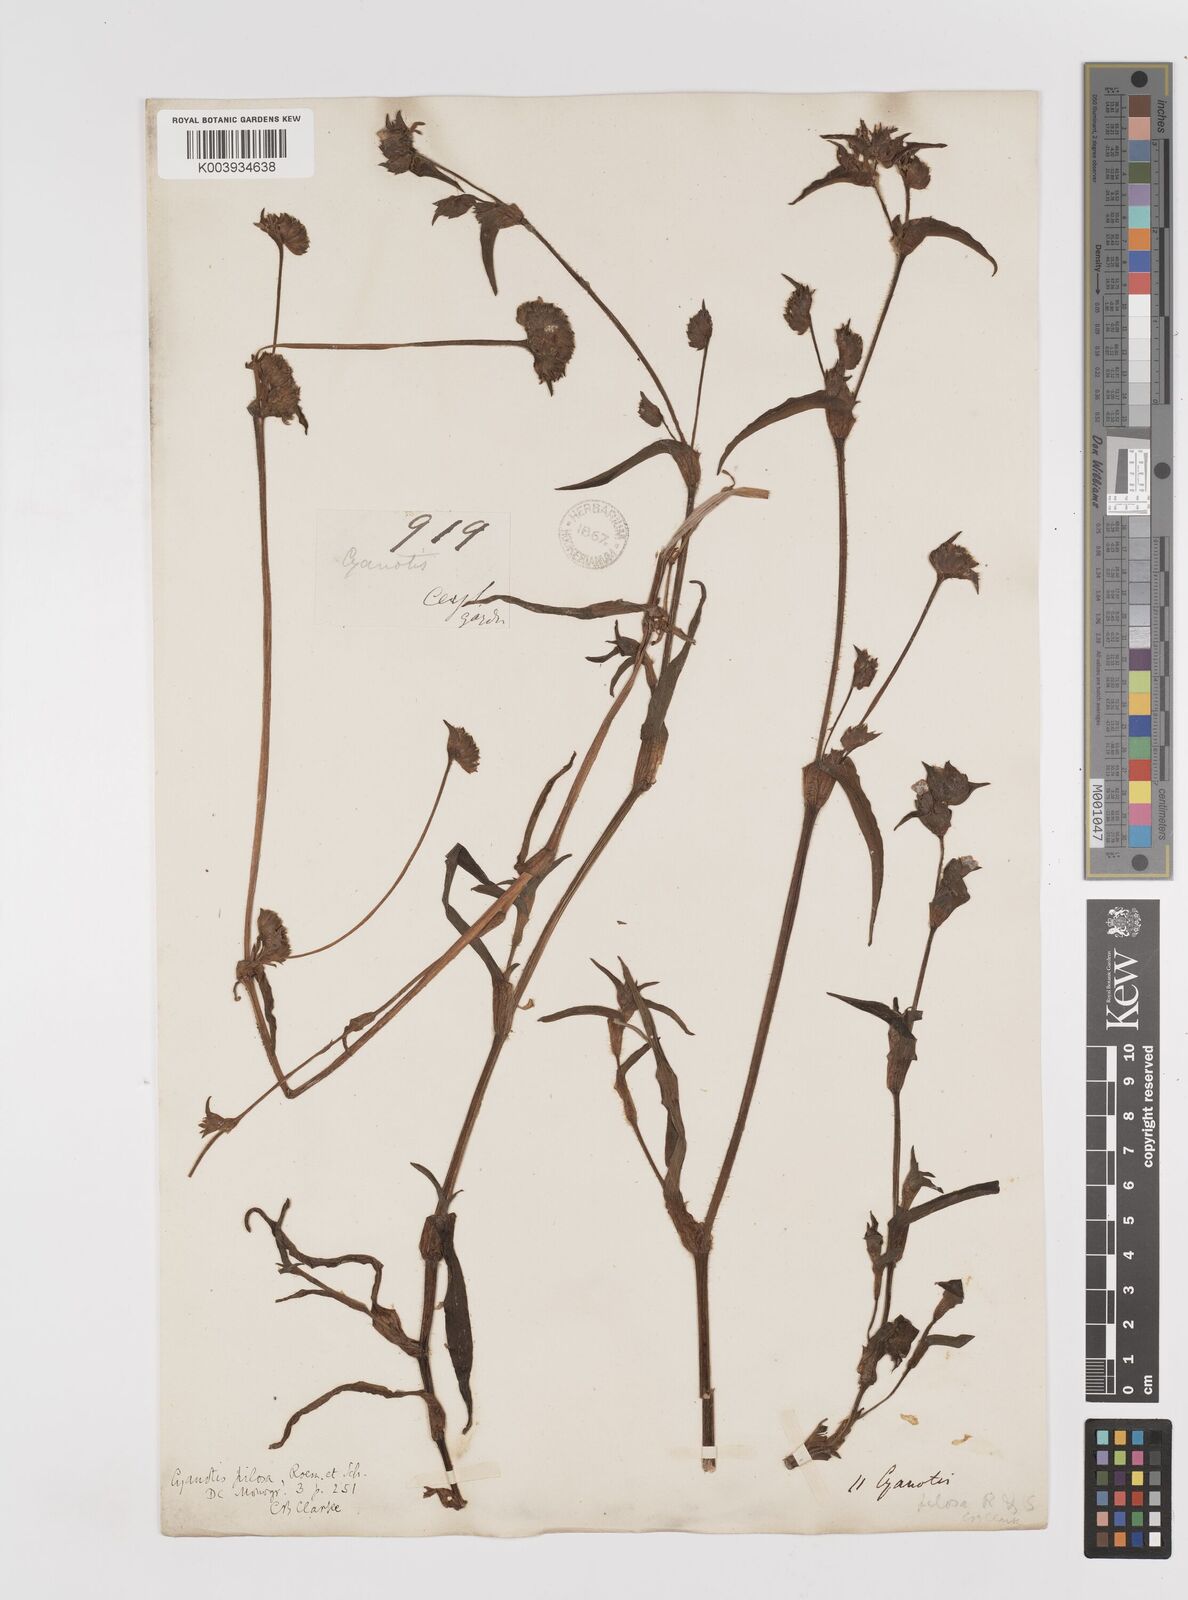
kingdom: Plantae
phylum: Tracheophyta
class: Liliopsida
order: Commelinales
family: Commelinaceae
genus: Cyanotis
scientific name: Cyanotis pilosa
